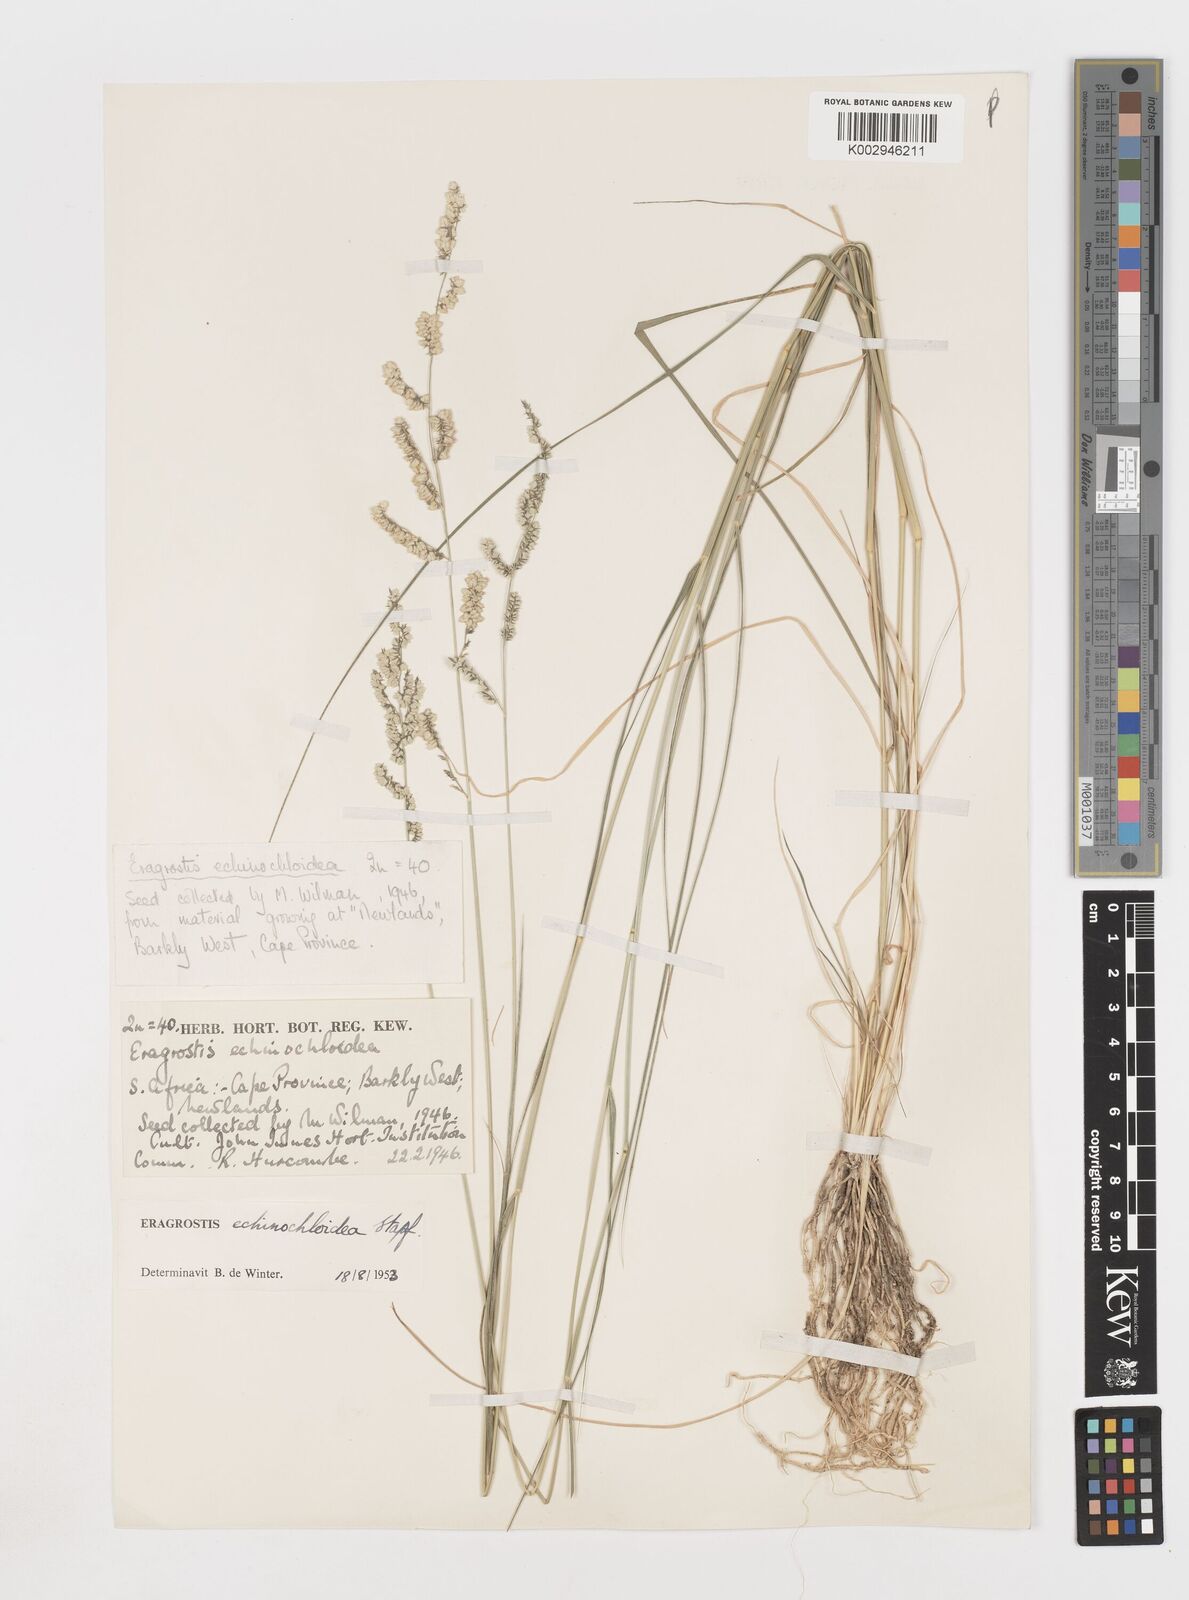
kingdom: Plantae
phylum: Tracheophyta
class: Liliopsida
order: Poales
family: Poaceae
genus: Eragrostis
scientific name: Eragrostis echinochloidea
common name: African lovegrass
